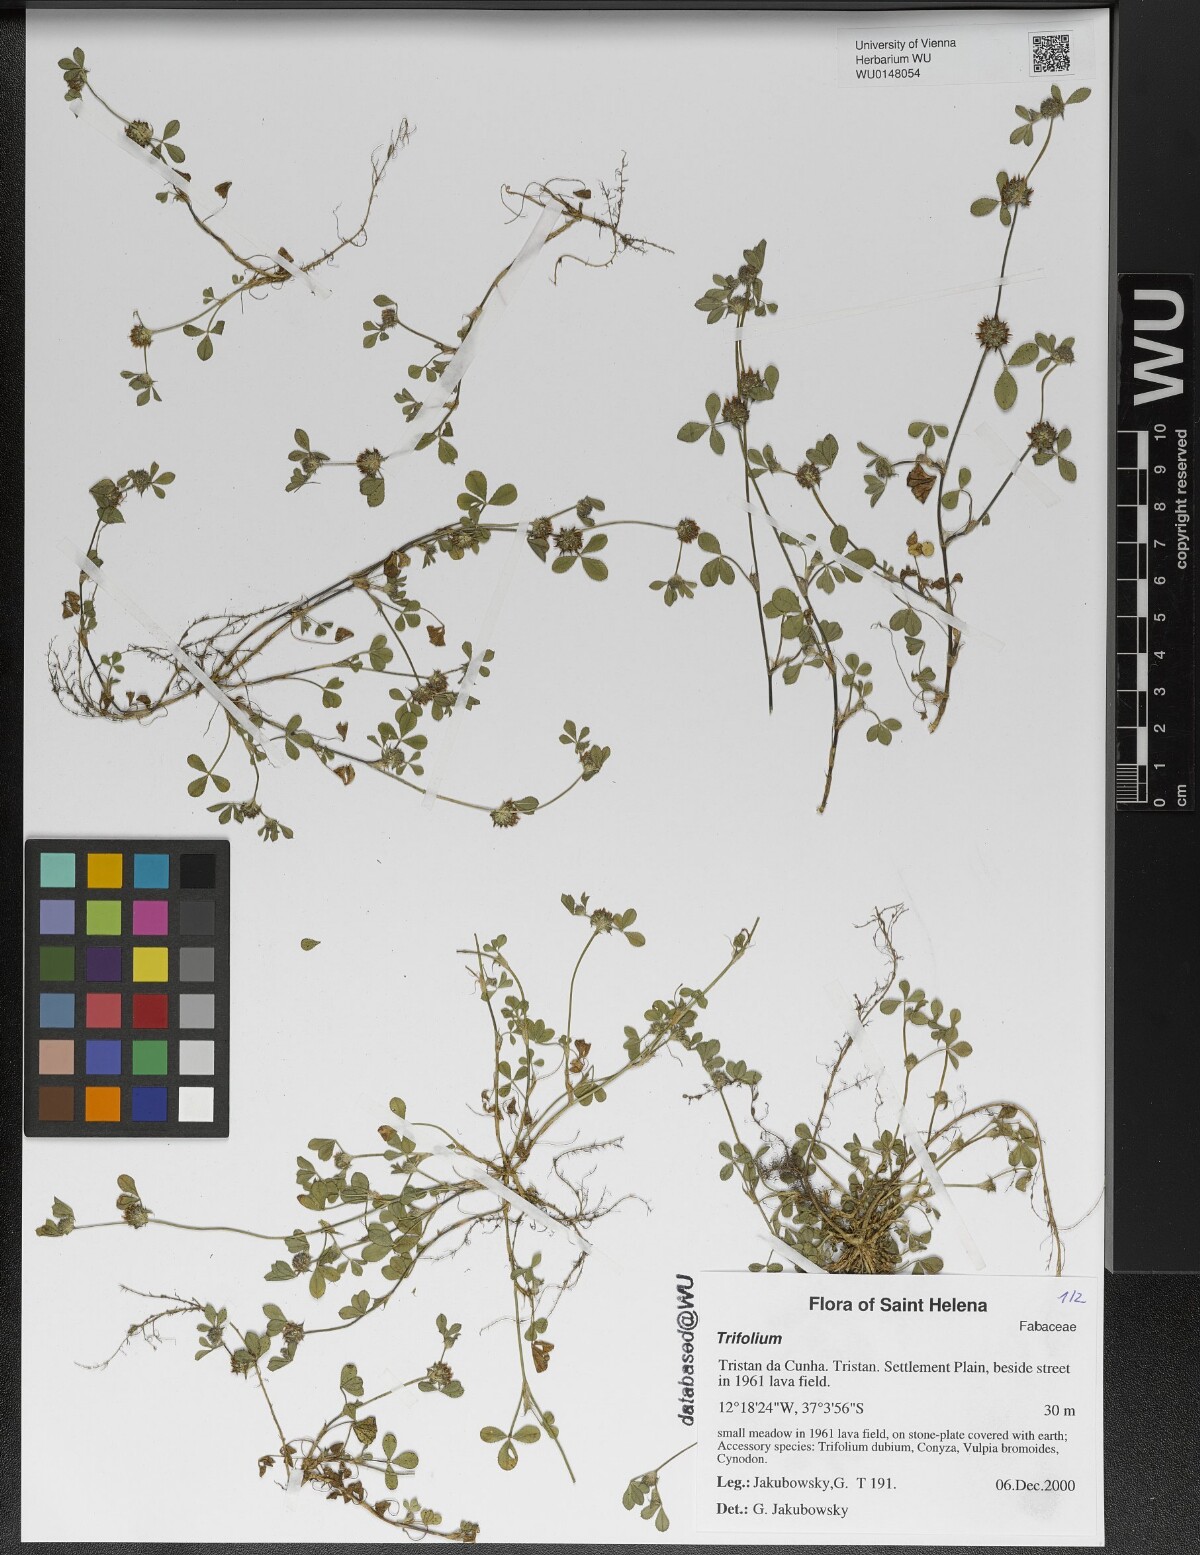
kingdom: Plantae
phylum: Tracheophyta
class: Magnoliopsida
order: Fabales
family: Fabaceae
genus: Trifolium
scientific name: Trifolium
